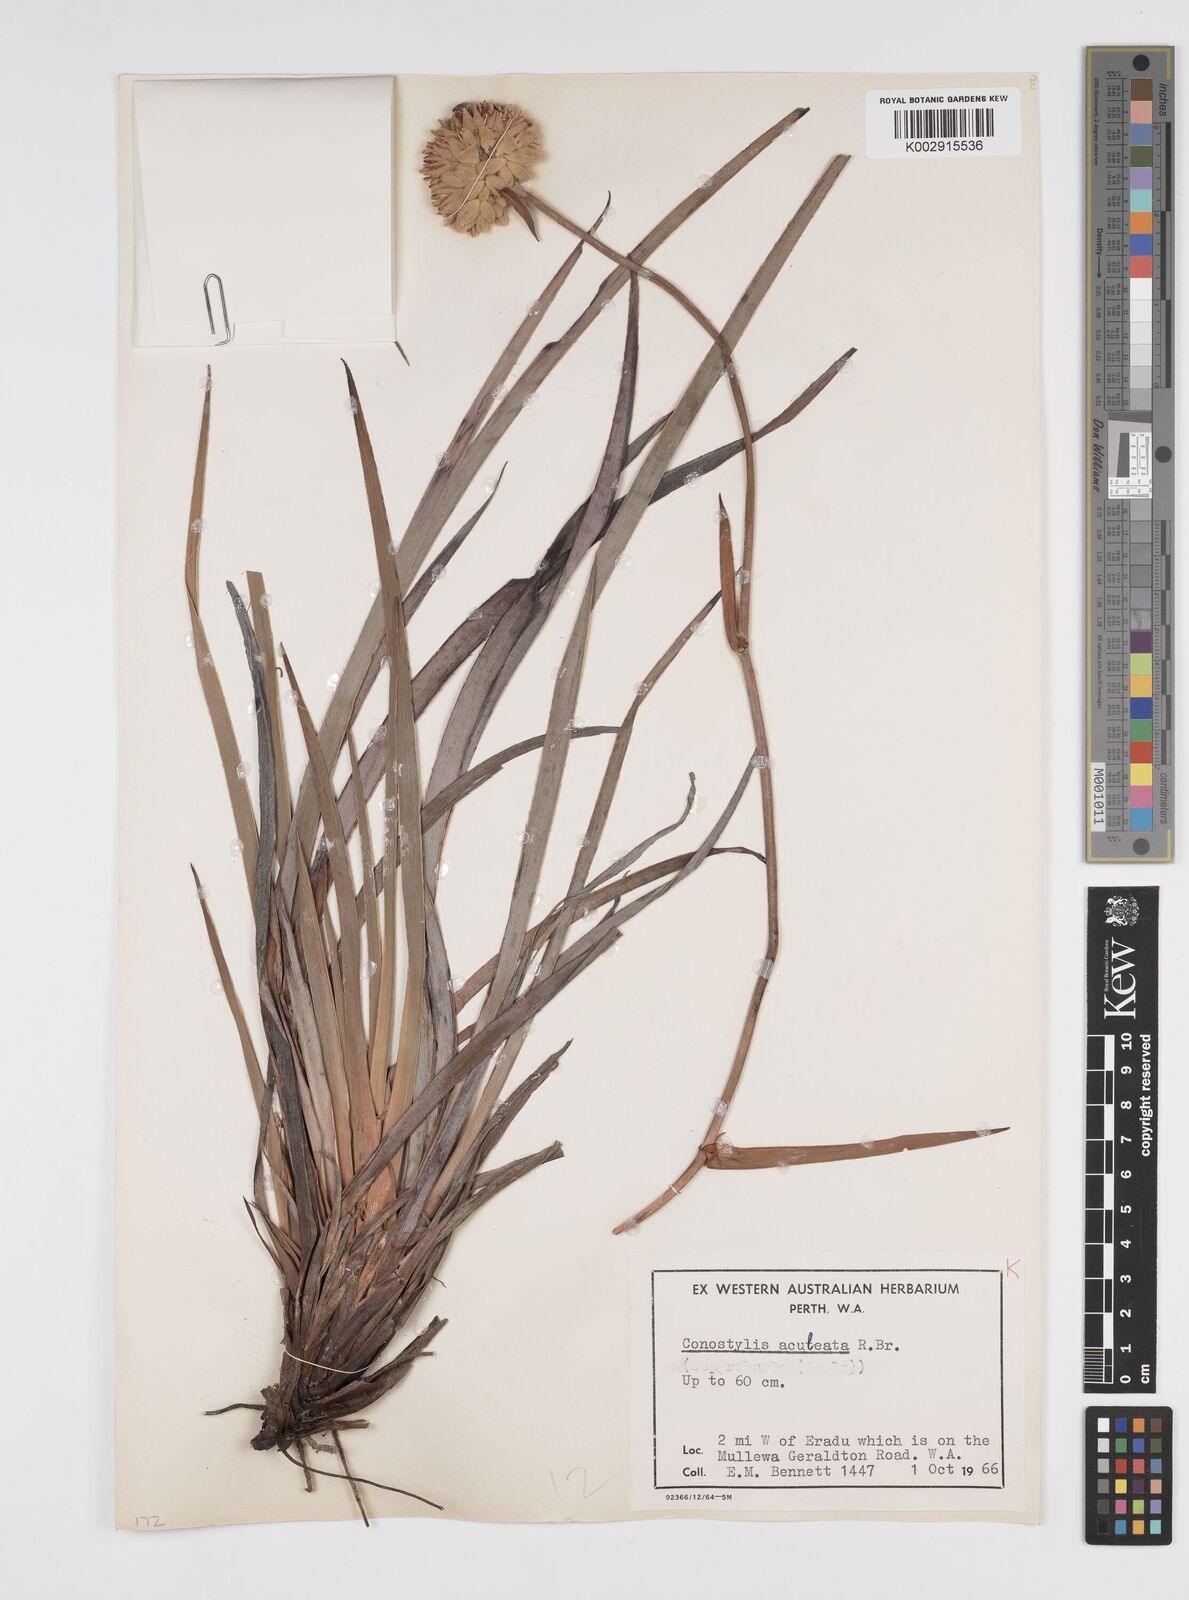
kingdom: Plantae
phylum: Tracheophyta
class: Liliopsida
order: Commelinales
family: Haemodoraceae
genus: Conostylis
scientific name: Conostylis aculeata
